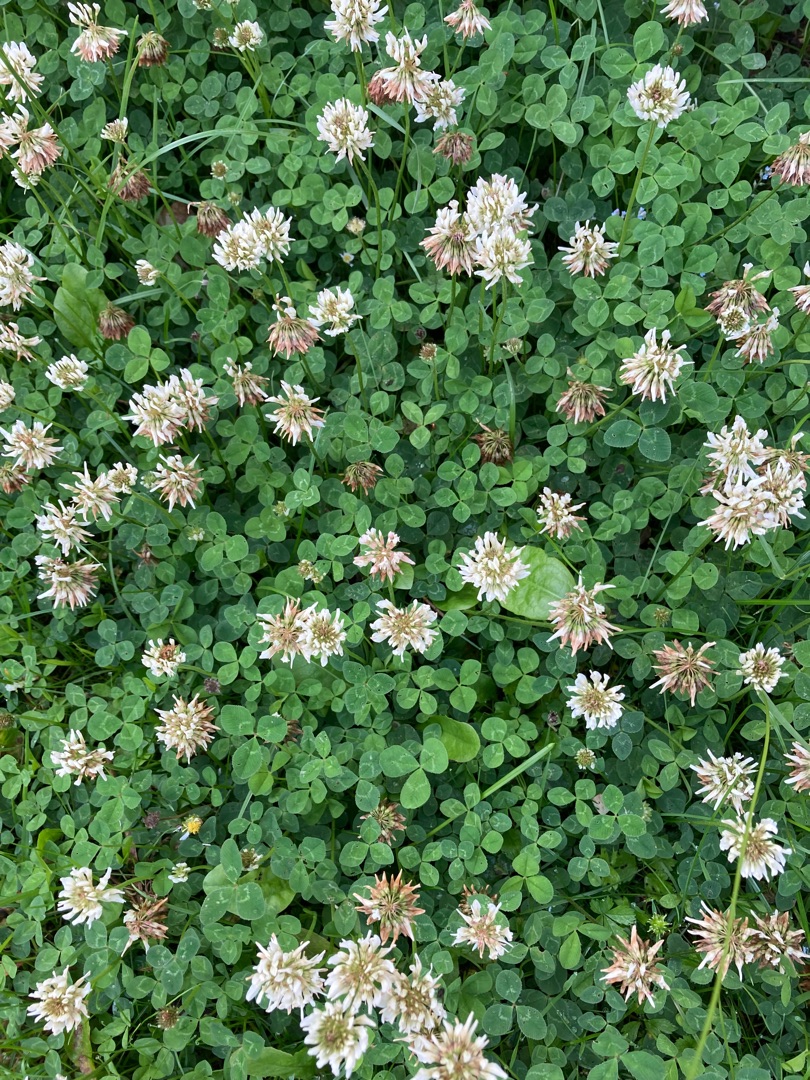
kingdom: Plantae
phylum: Tracheophyta
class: Magnoliopsida
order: Fabales
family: Fabaceae
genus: Trifolium
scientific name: Trifolium repens
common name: Hvid-kløver
